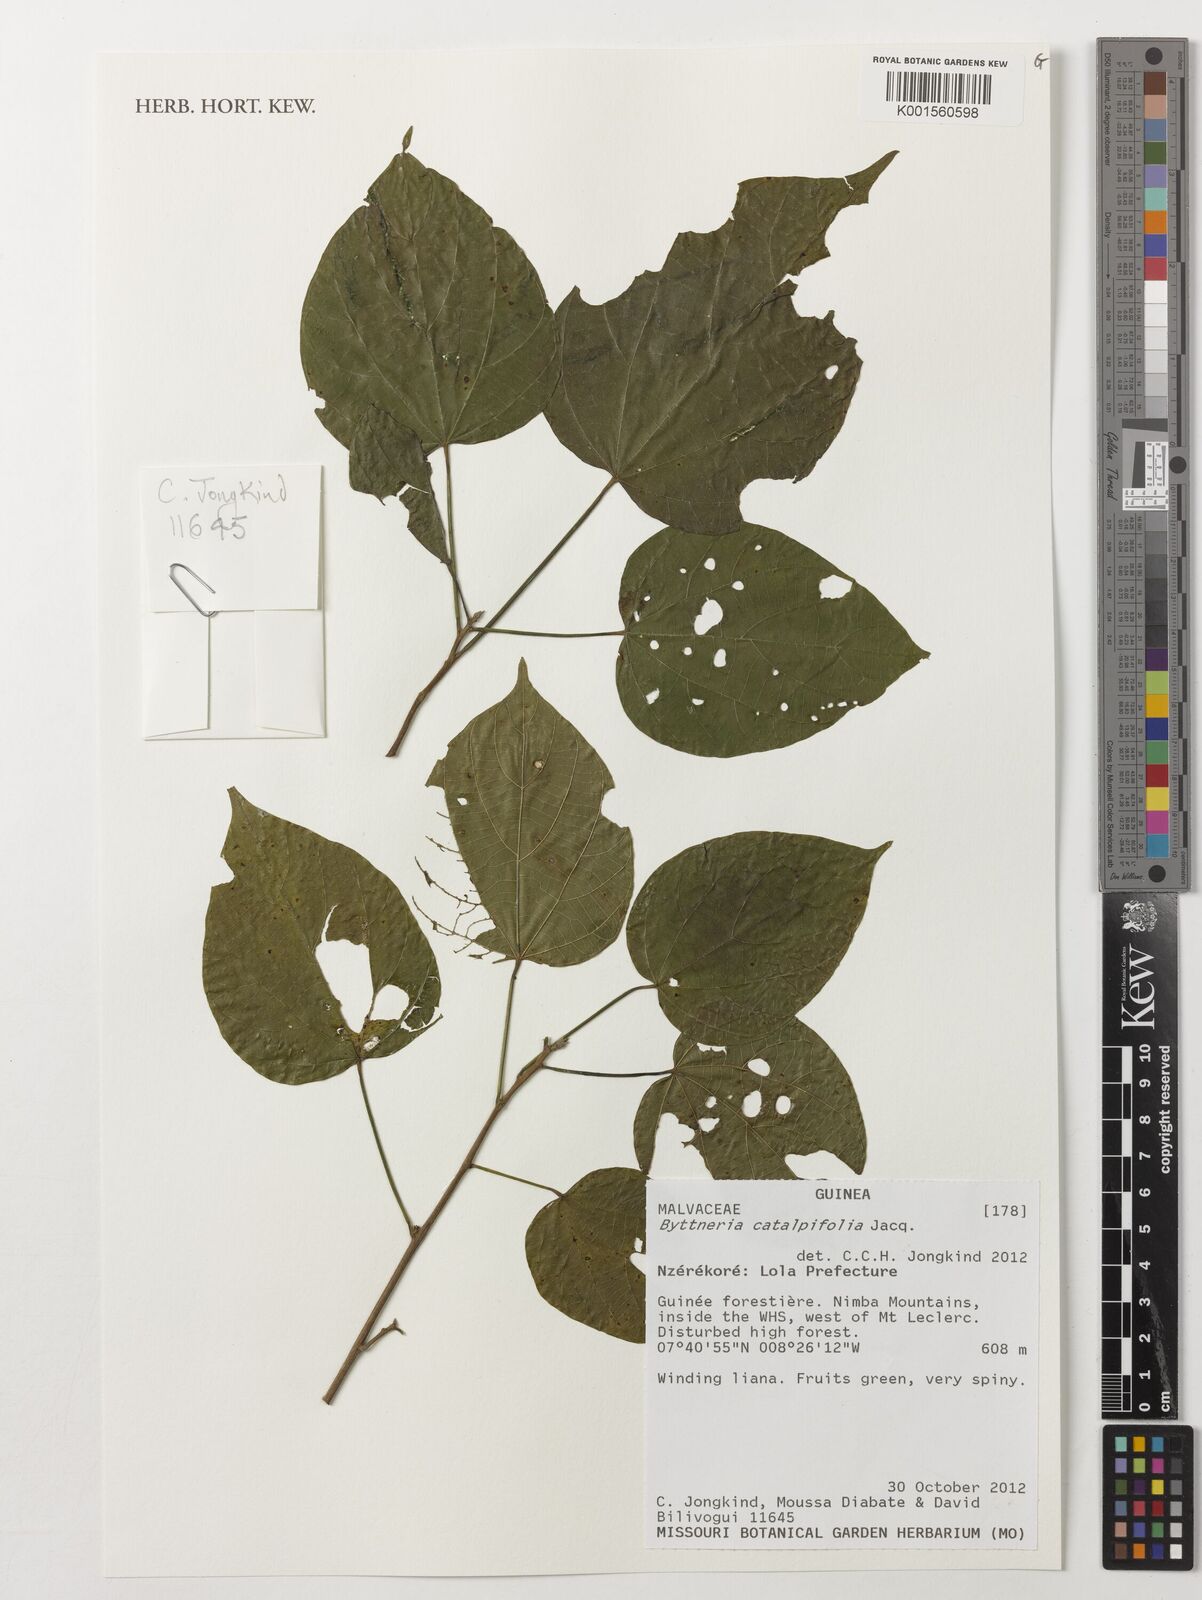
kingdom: Plantae
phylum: Tracheophyta
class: Magnoliopsida
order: Malvales
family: Malvaceae
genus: Byttneria
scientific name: Byttneria catalpifolia
